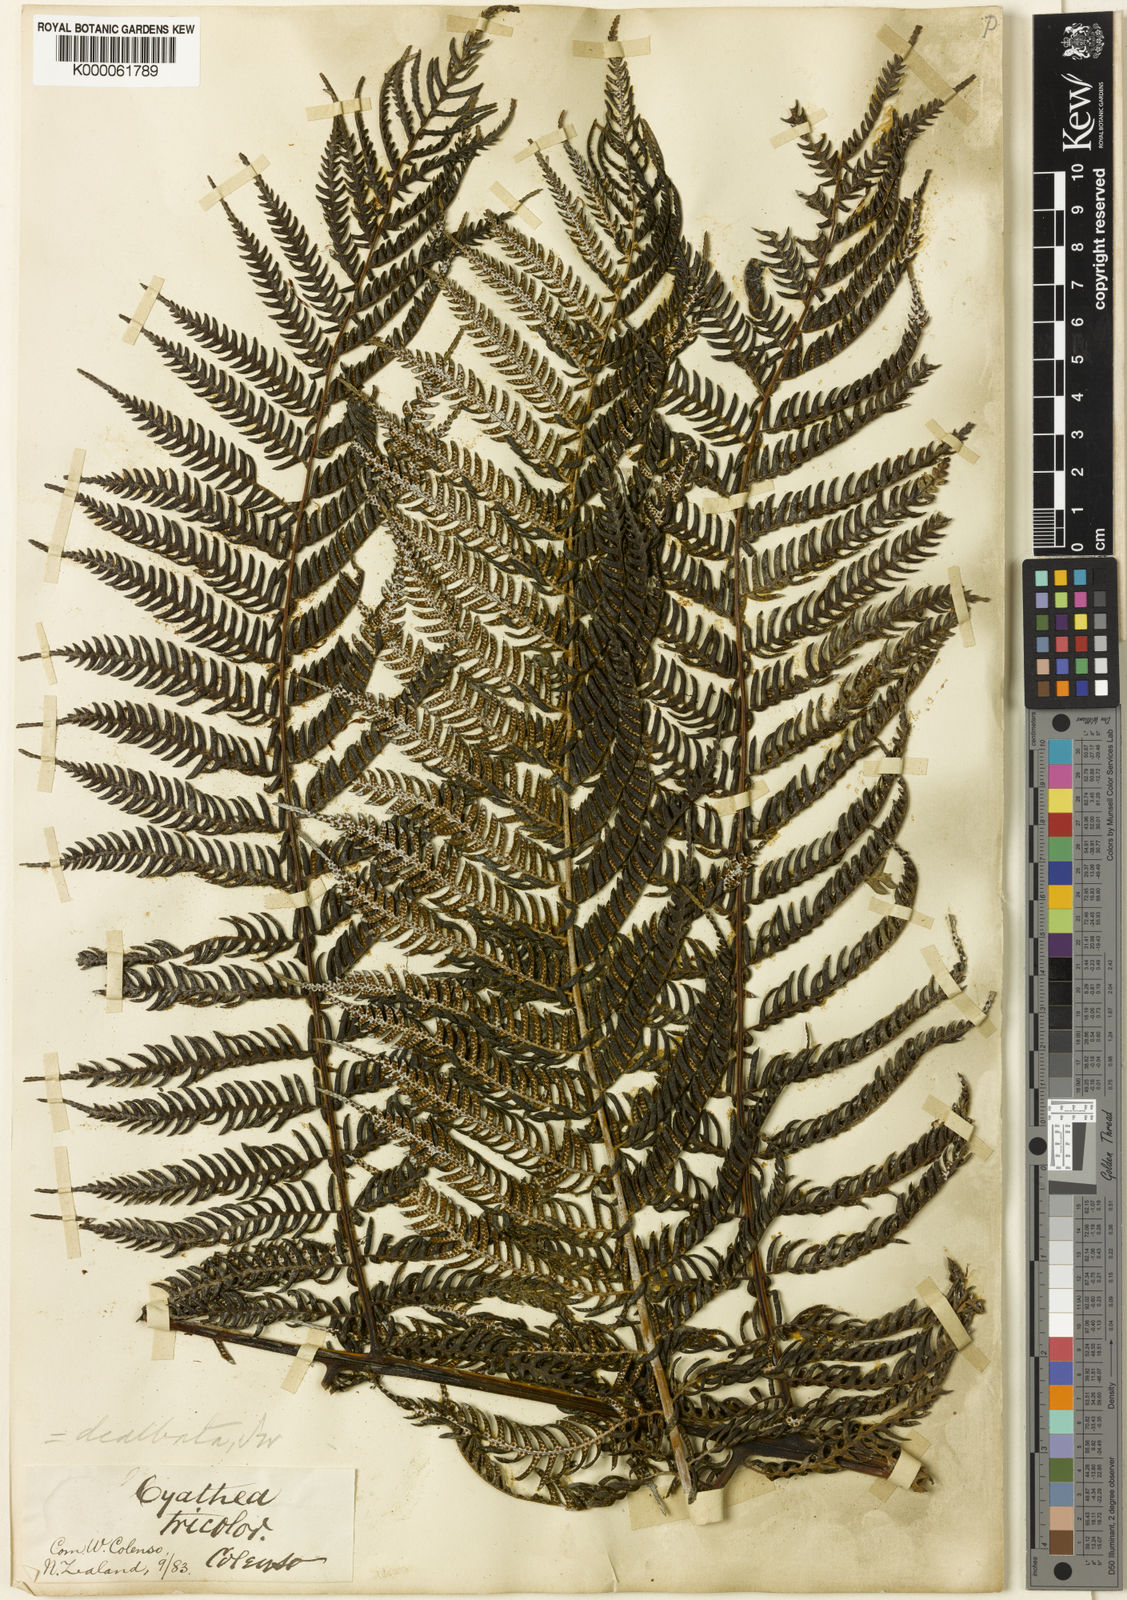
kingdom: Plantae
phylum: Tracheophyta
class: Polypodiopsida
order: Cyatheales
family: Cyatheaceae
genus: Alsophila
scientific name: Alsophila dealbata
